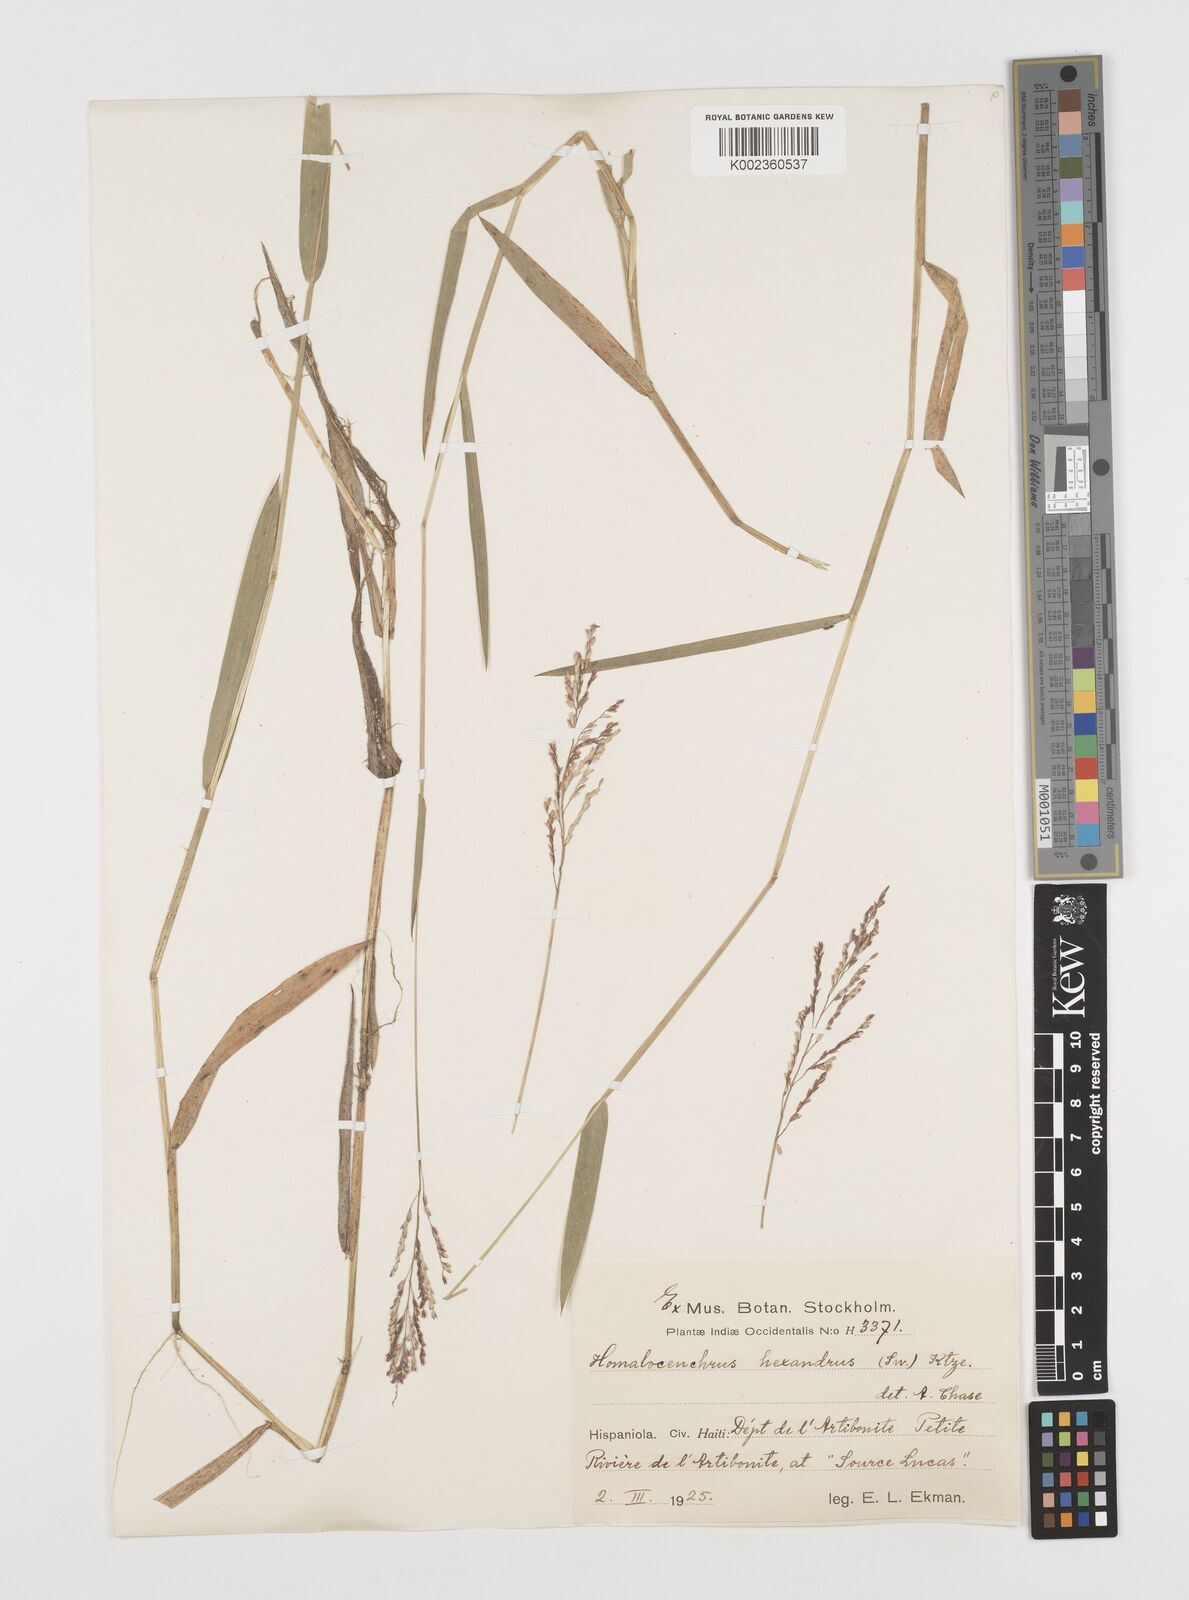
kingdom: Plantae
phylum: Tracheophyta
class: Liliopsida
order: Poales
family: Poaceae
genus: Leersia
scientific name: Leersia hexandra
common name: Southern cut grass
